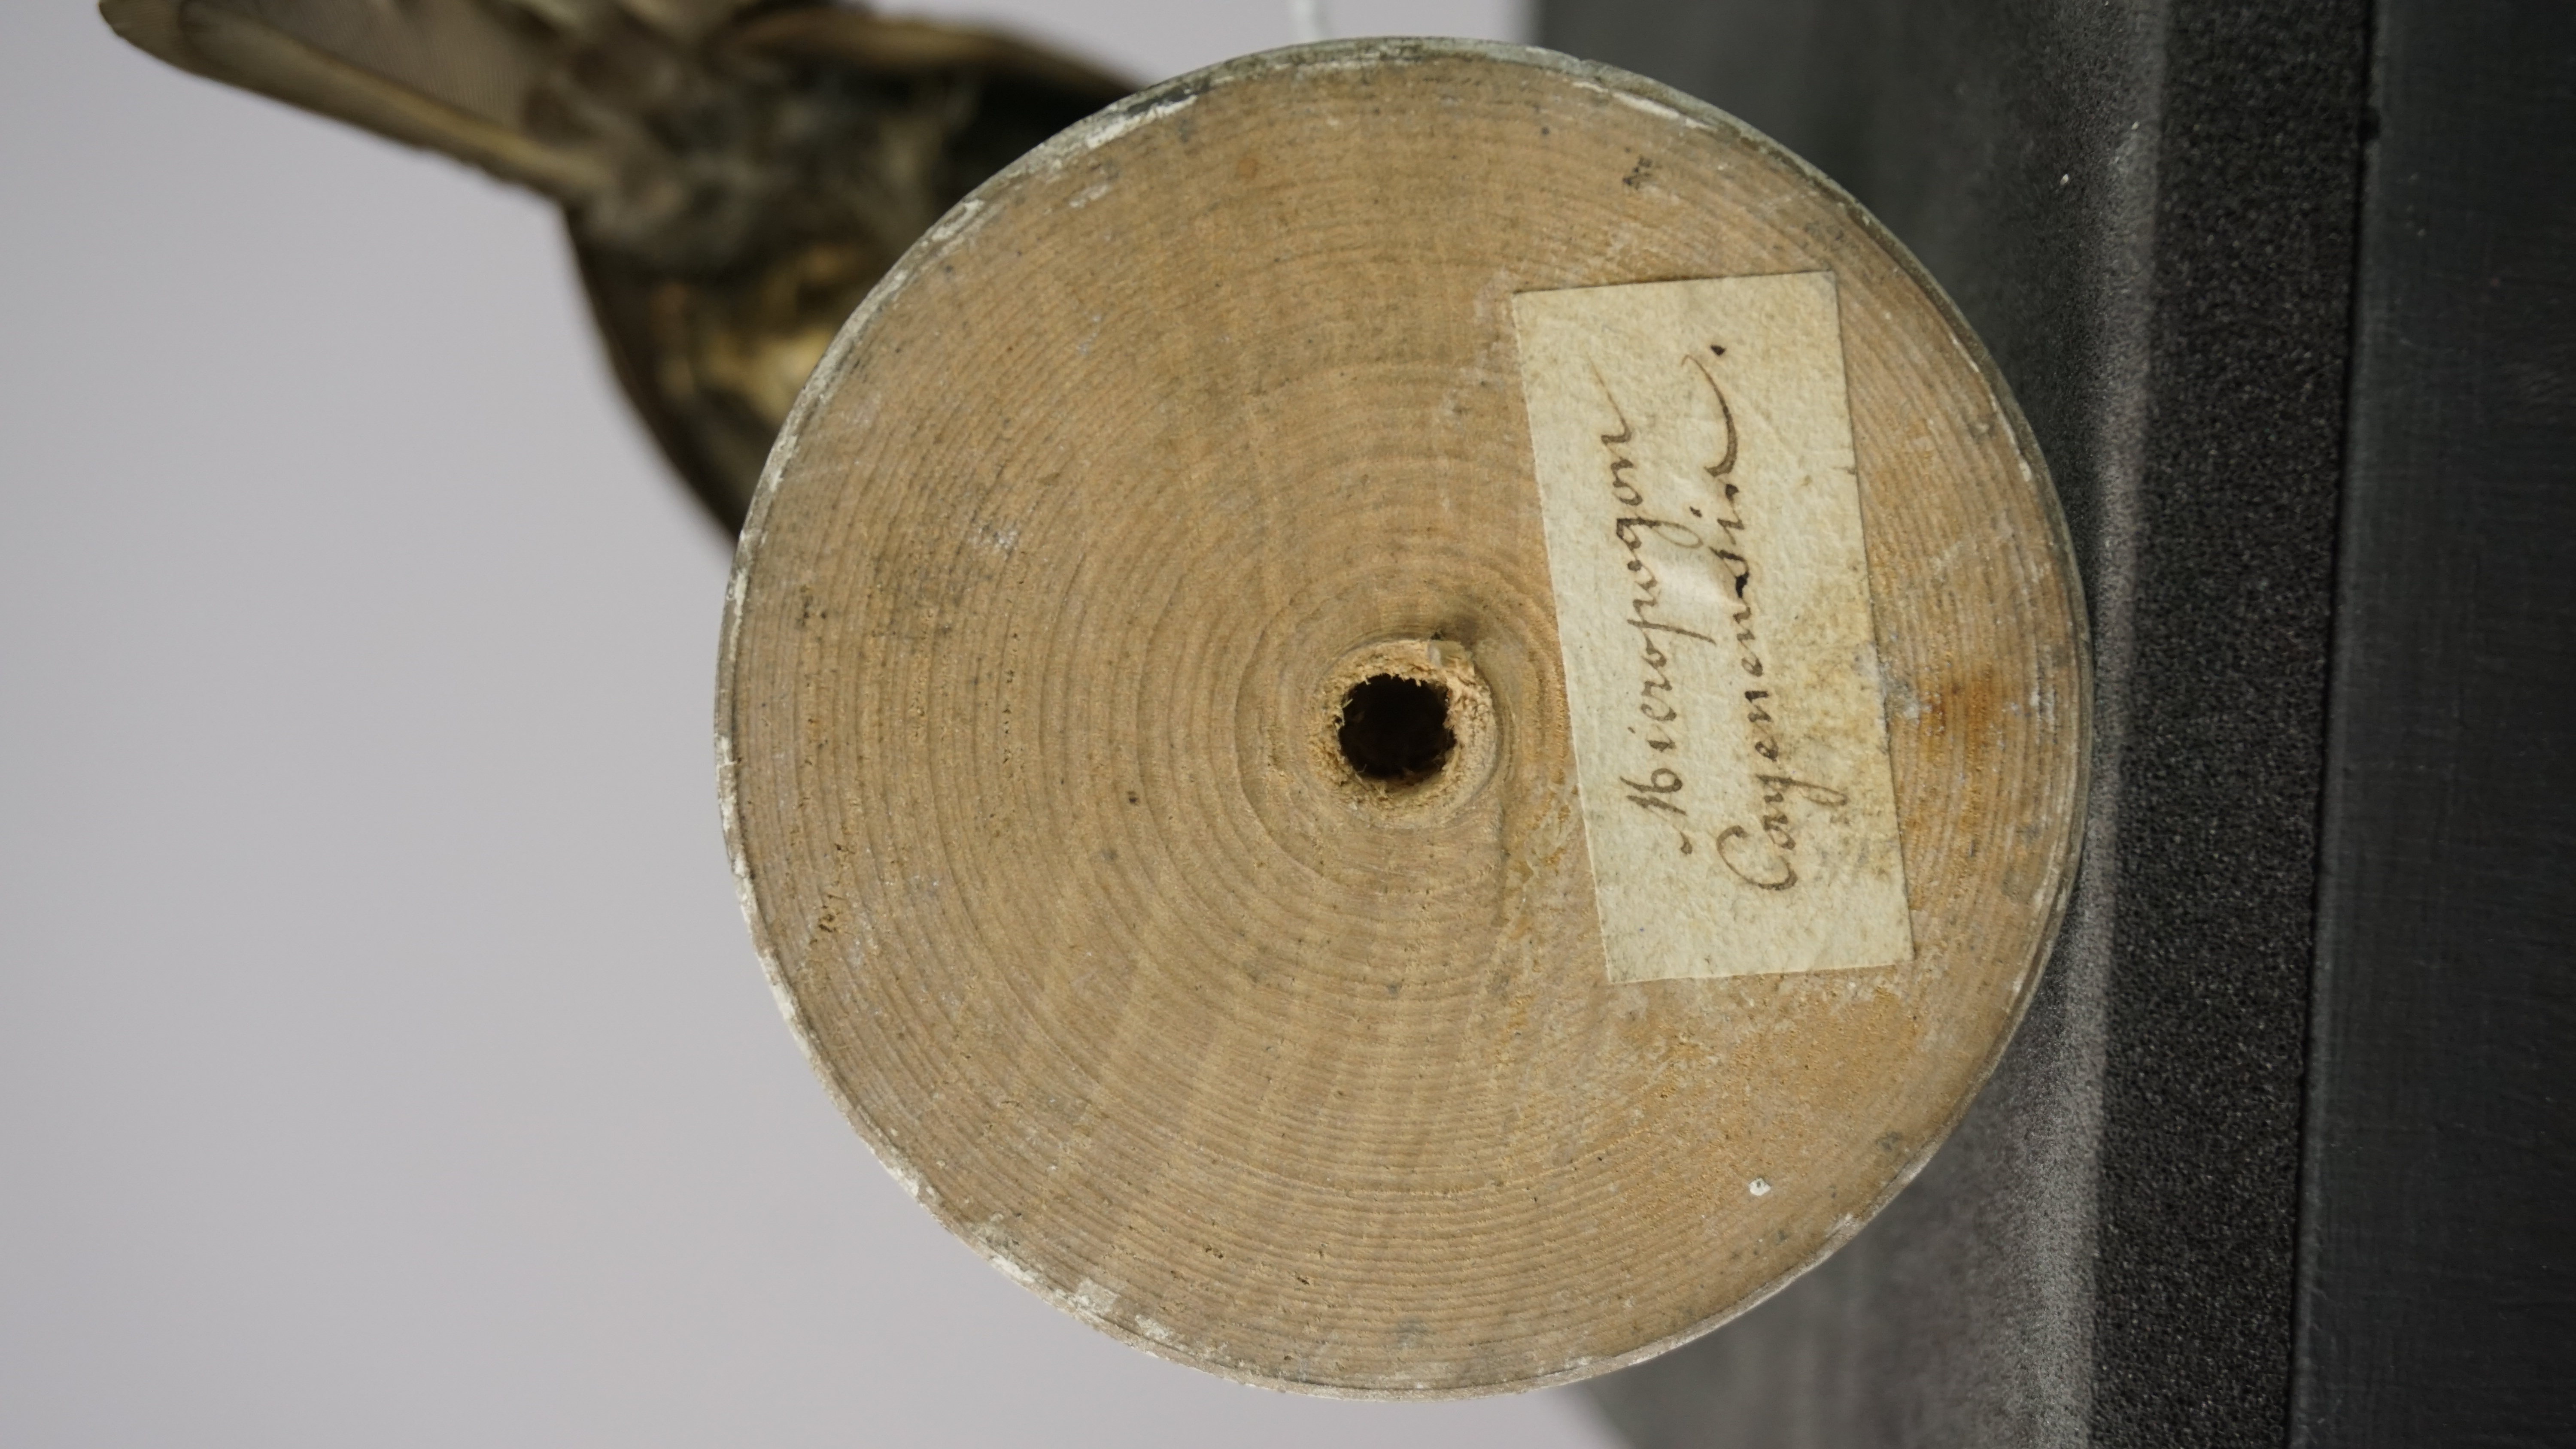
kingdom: Animalia
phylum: Chordata
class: Aves
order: Piciformes
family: Capitonidae
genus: Capito
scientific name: Capito niger
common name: Black-spotted barbet
